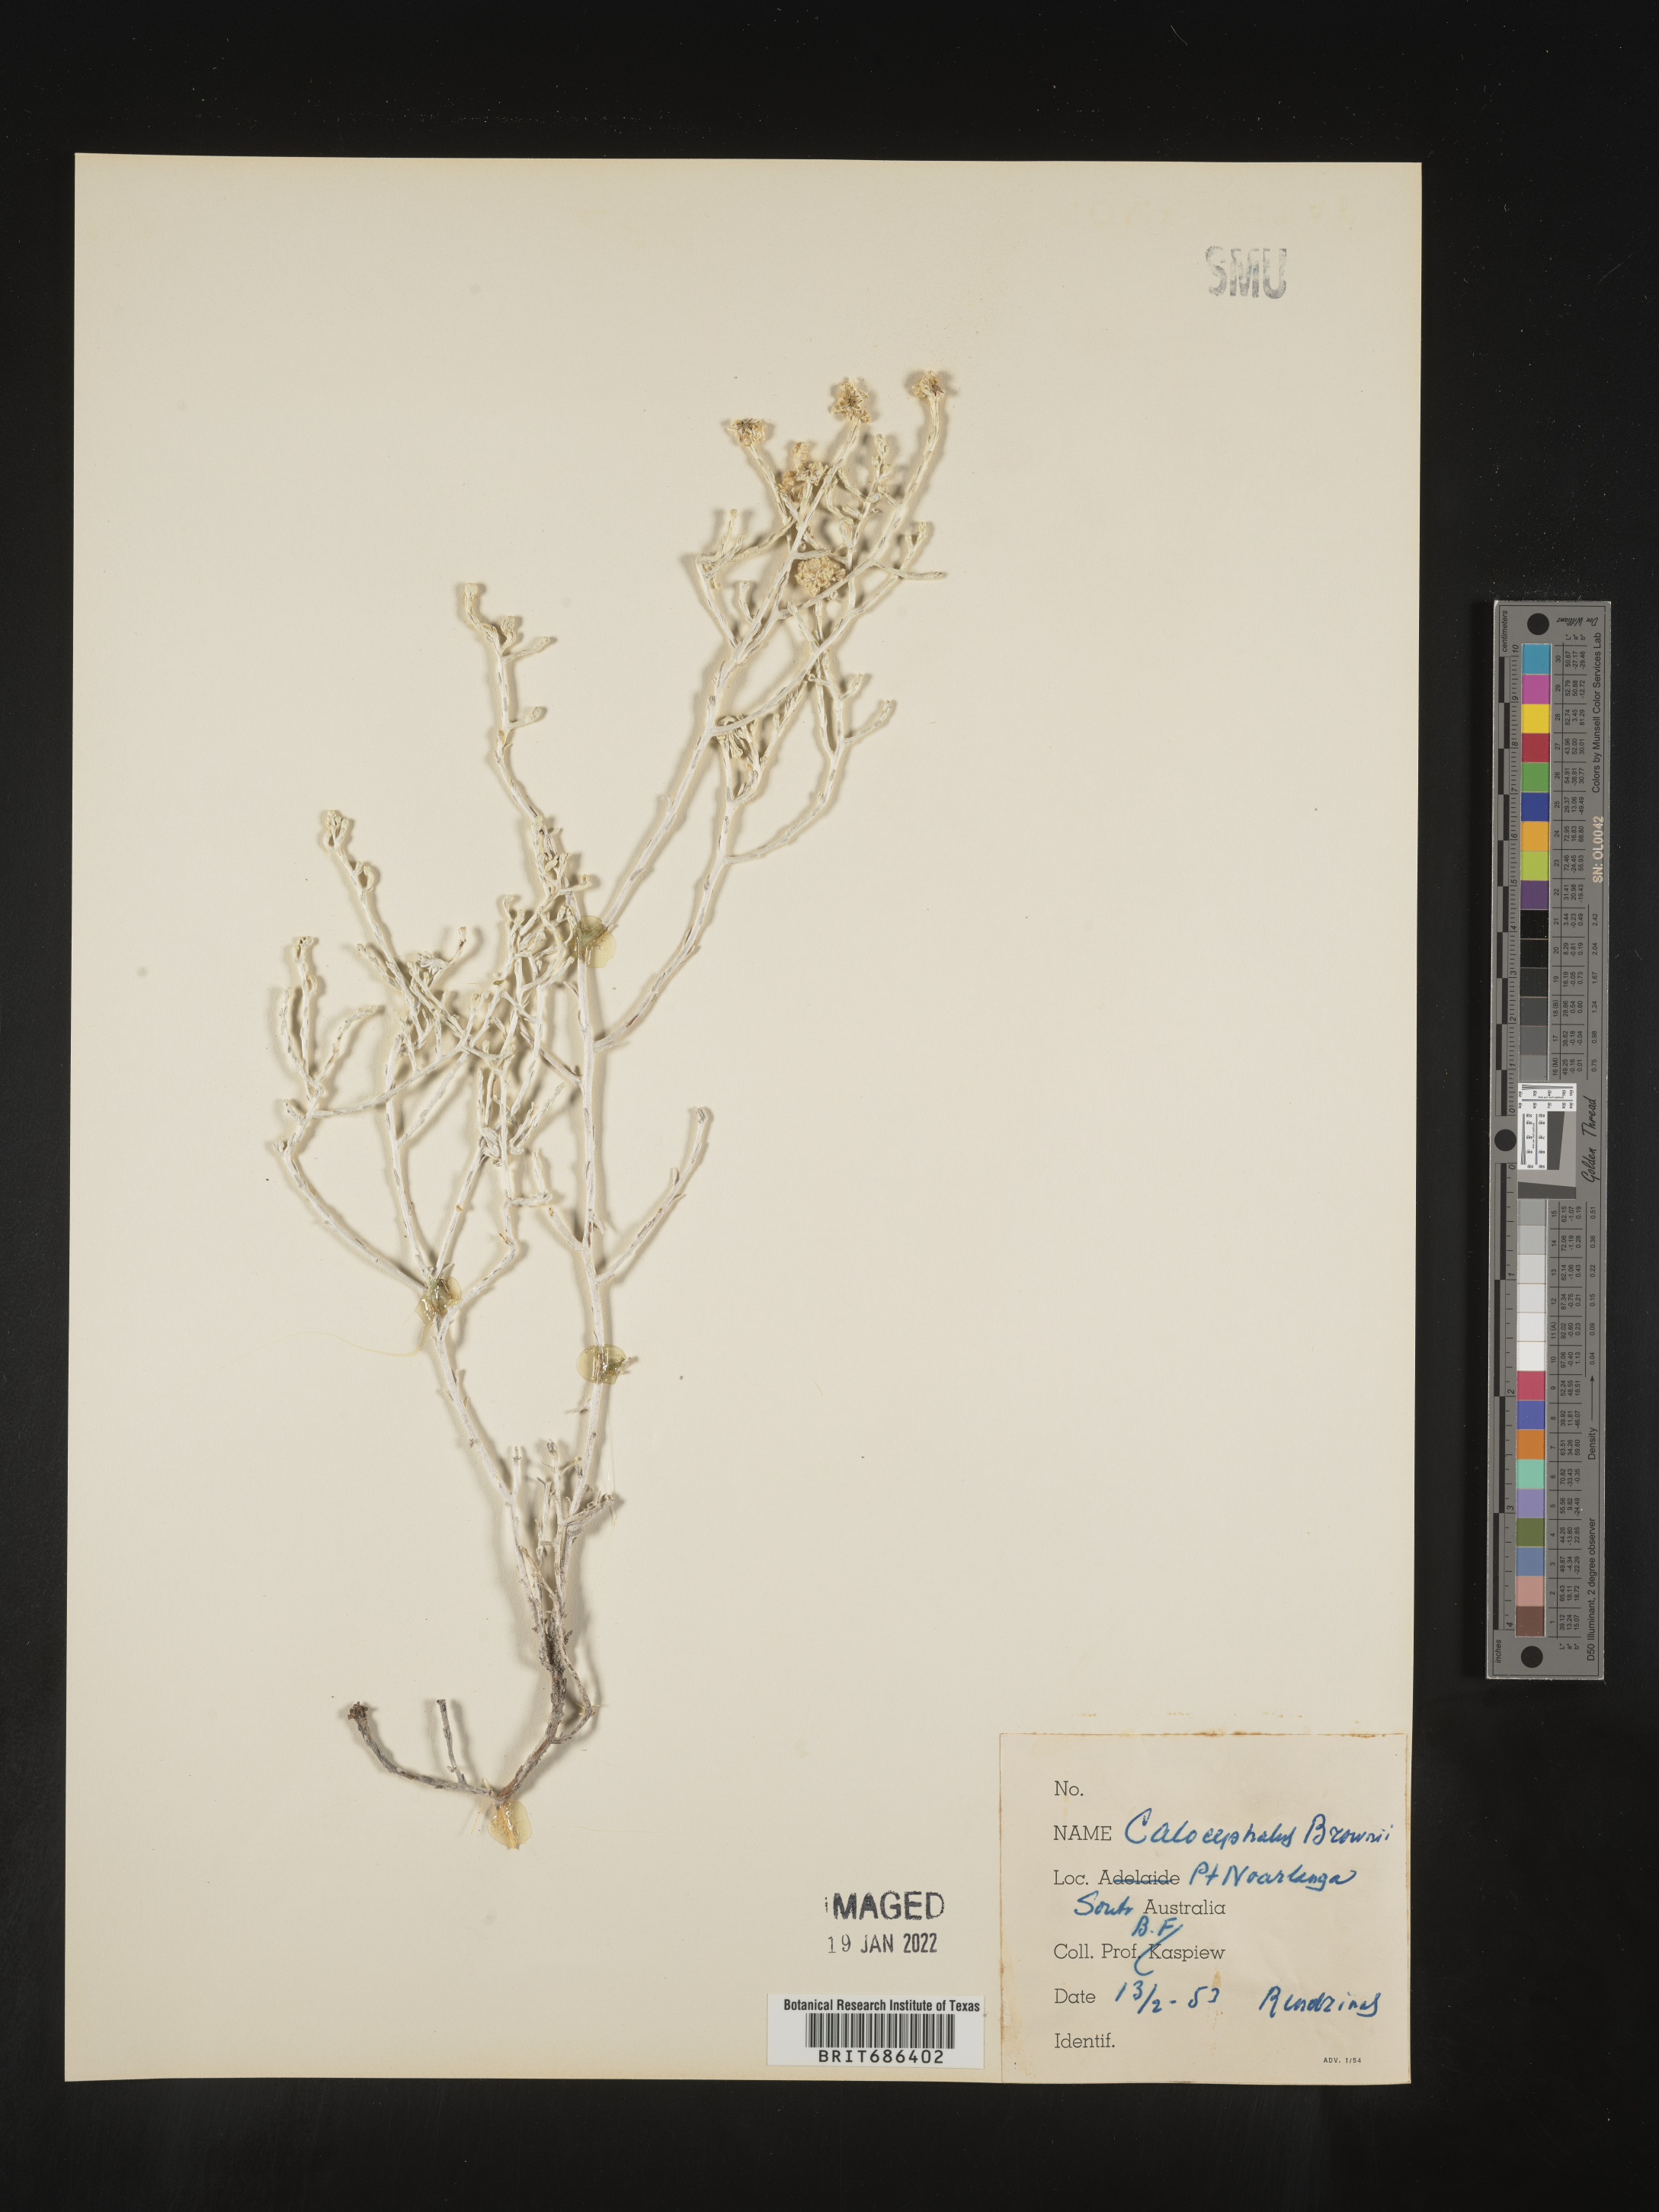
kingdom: Plantae
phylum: Tracheophyta
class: Magnoliopsida
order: Asterales
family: Asteraceae
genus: Calocephalus
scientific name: Calocephalus
